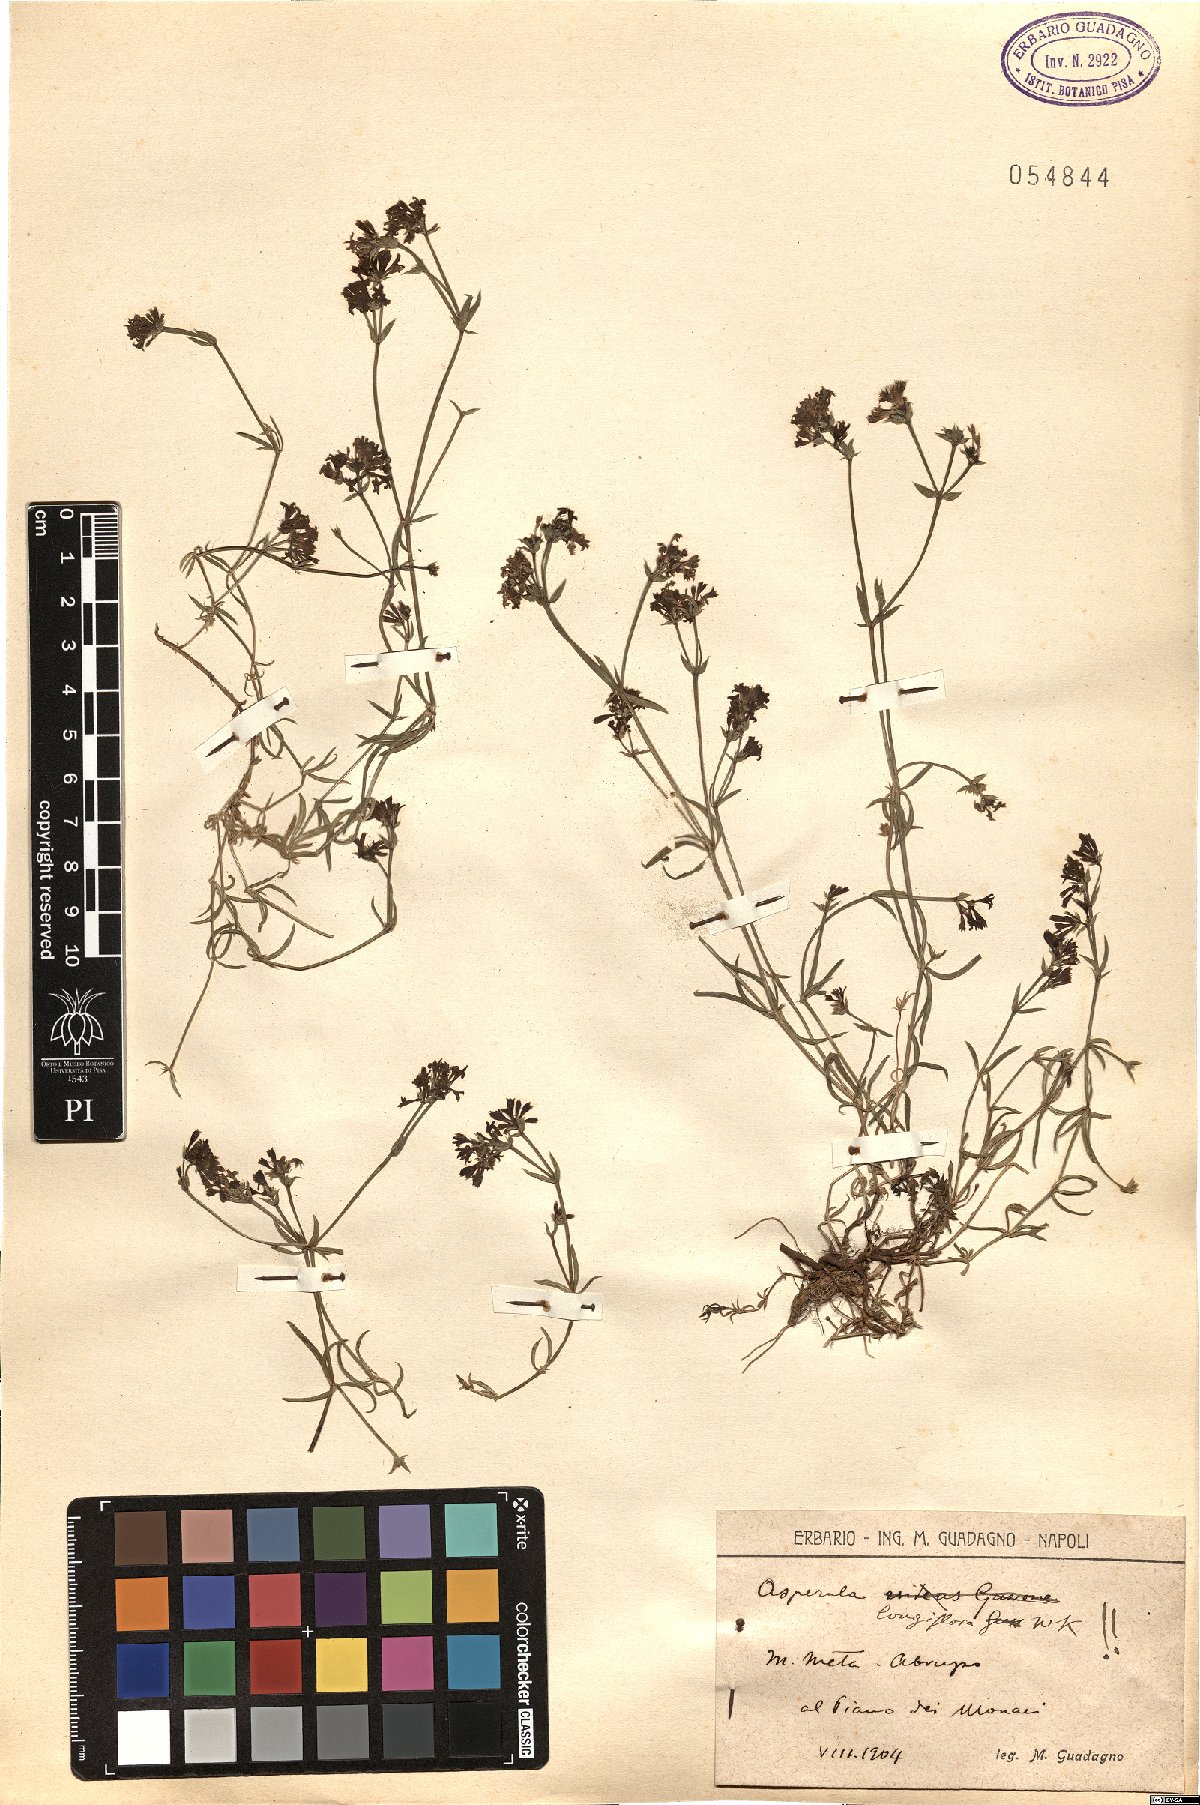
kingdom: Plantae
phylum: Tracheophyta
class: Magnoliopsida
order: Gentianales
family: Rubiaceae
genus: Cynanchica
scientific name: Cynanchica aristata
